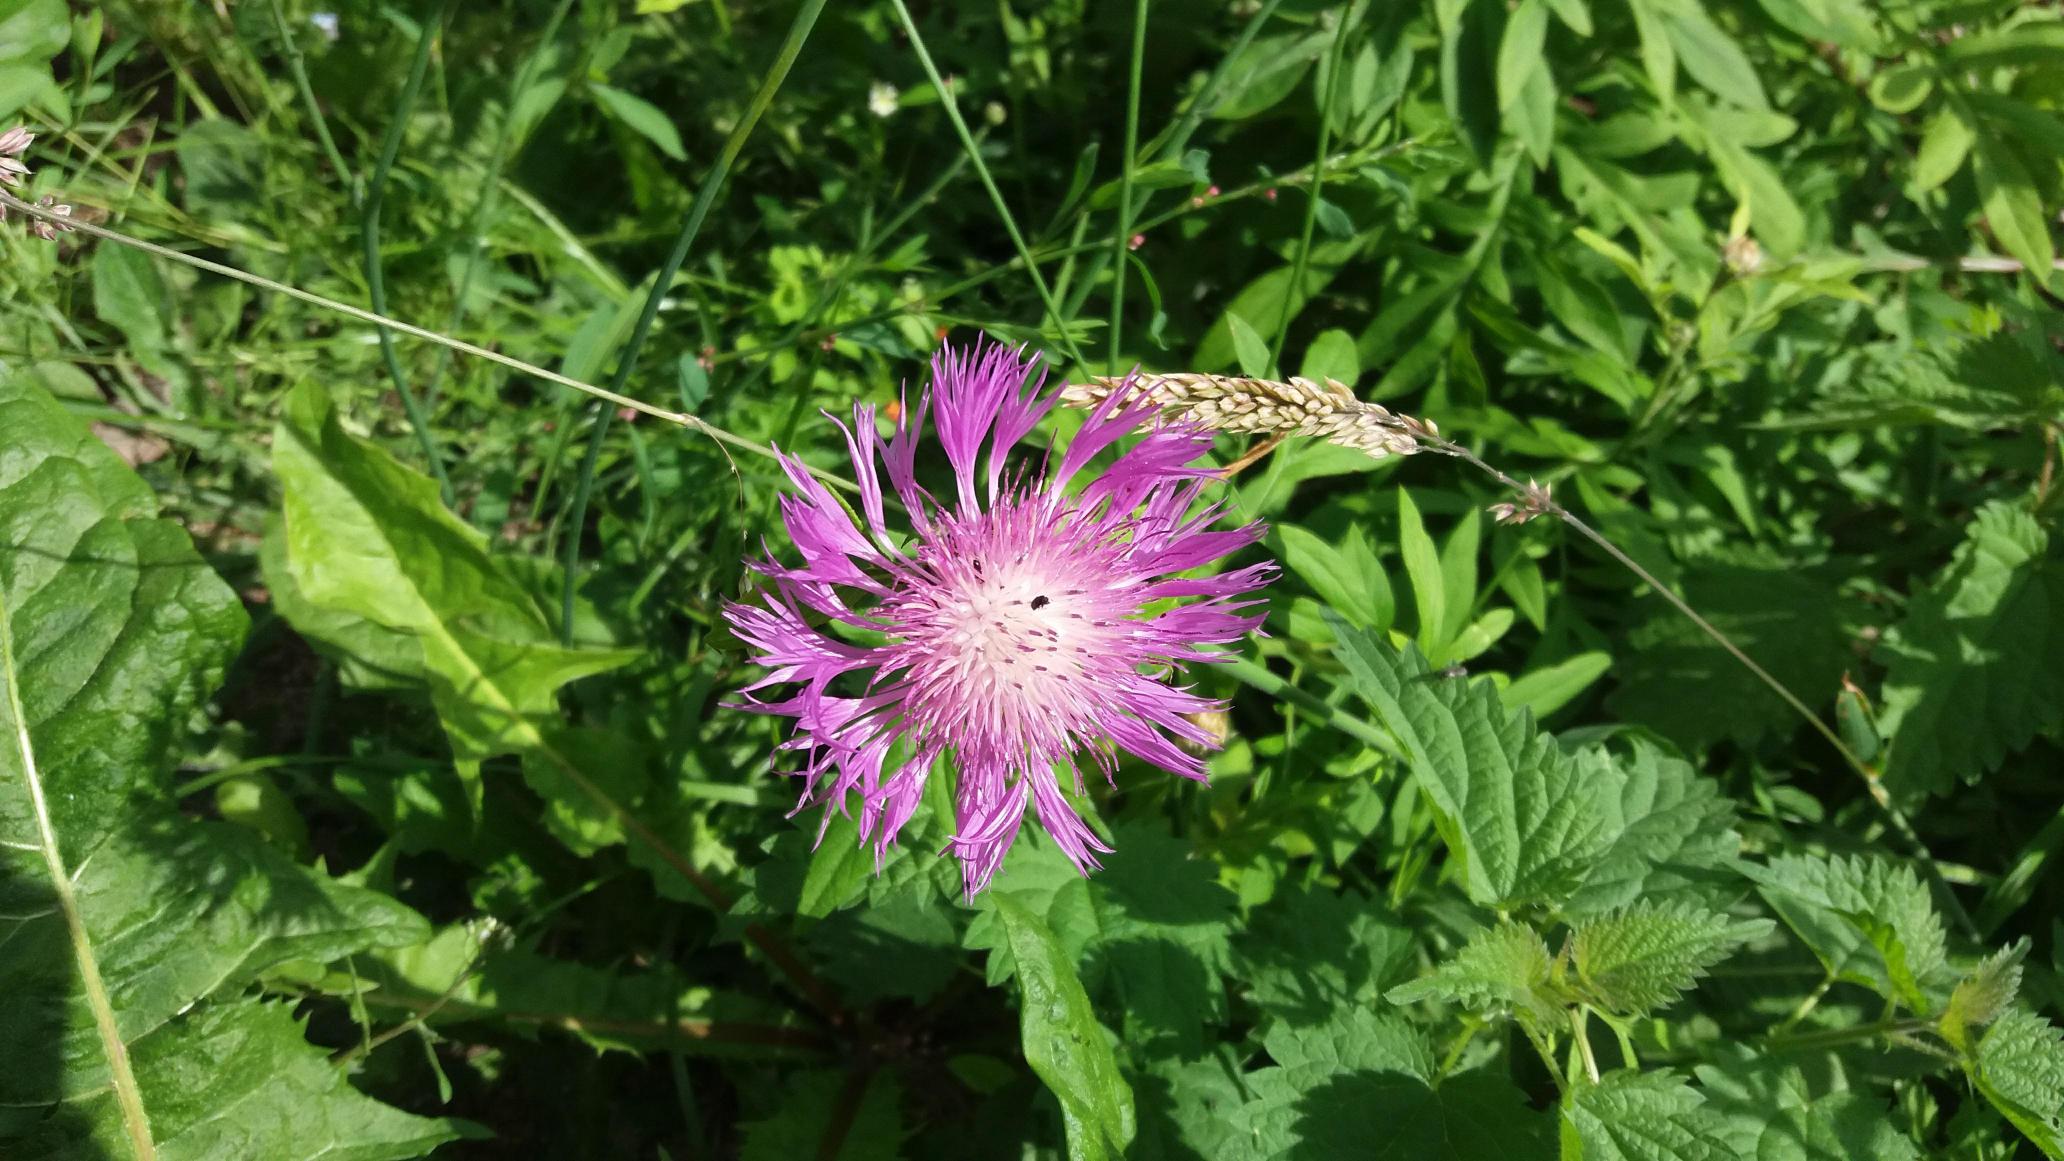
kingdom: Plantae
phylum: Tracheophyta
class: Magnoliopsida
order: Asterales
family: Asteraceae
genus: Centaurea
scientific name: Centaurea
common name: Knopurtslægten
